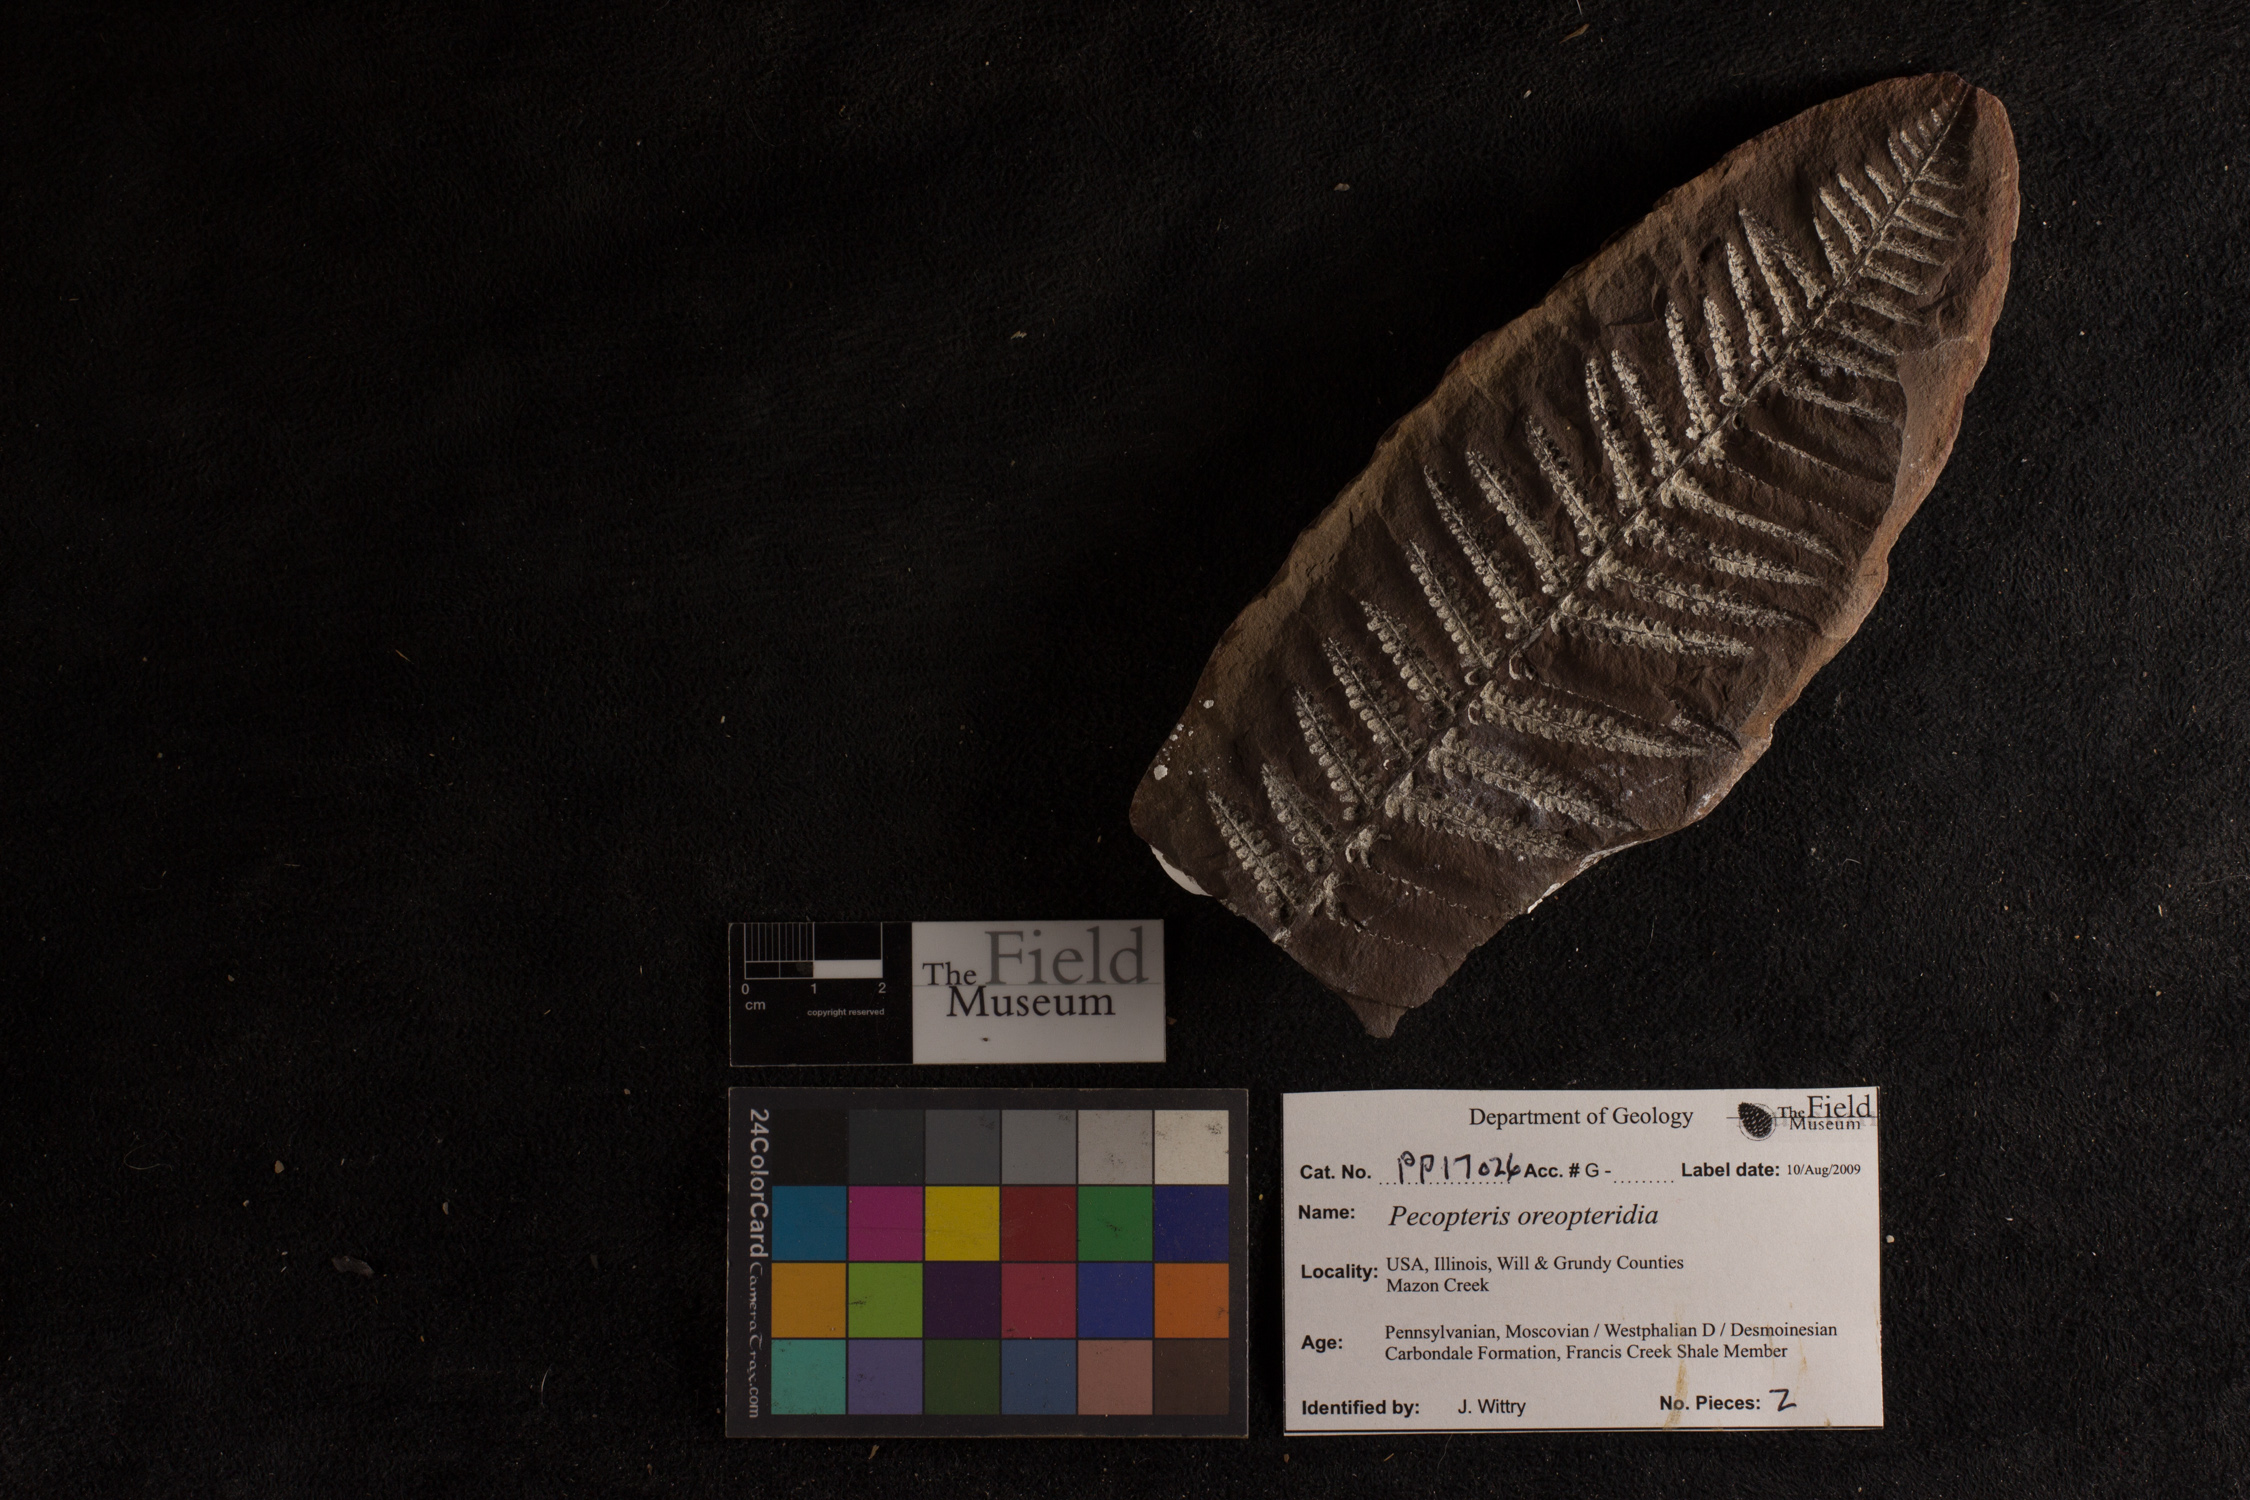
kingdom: Plantae
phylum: Tracheophyta
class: Polypodiopsida
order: Marattiales
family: Asterothecaceae
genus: Pecopteris
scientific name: Pecopteris
